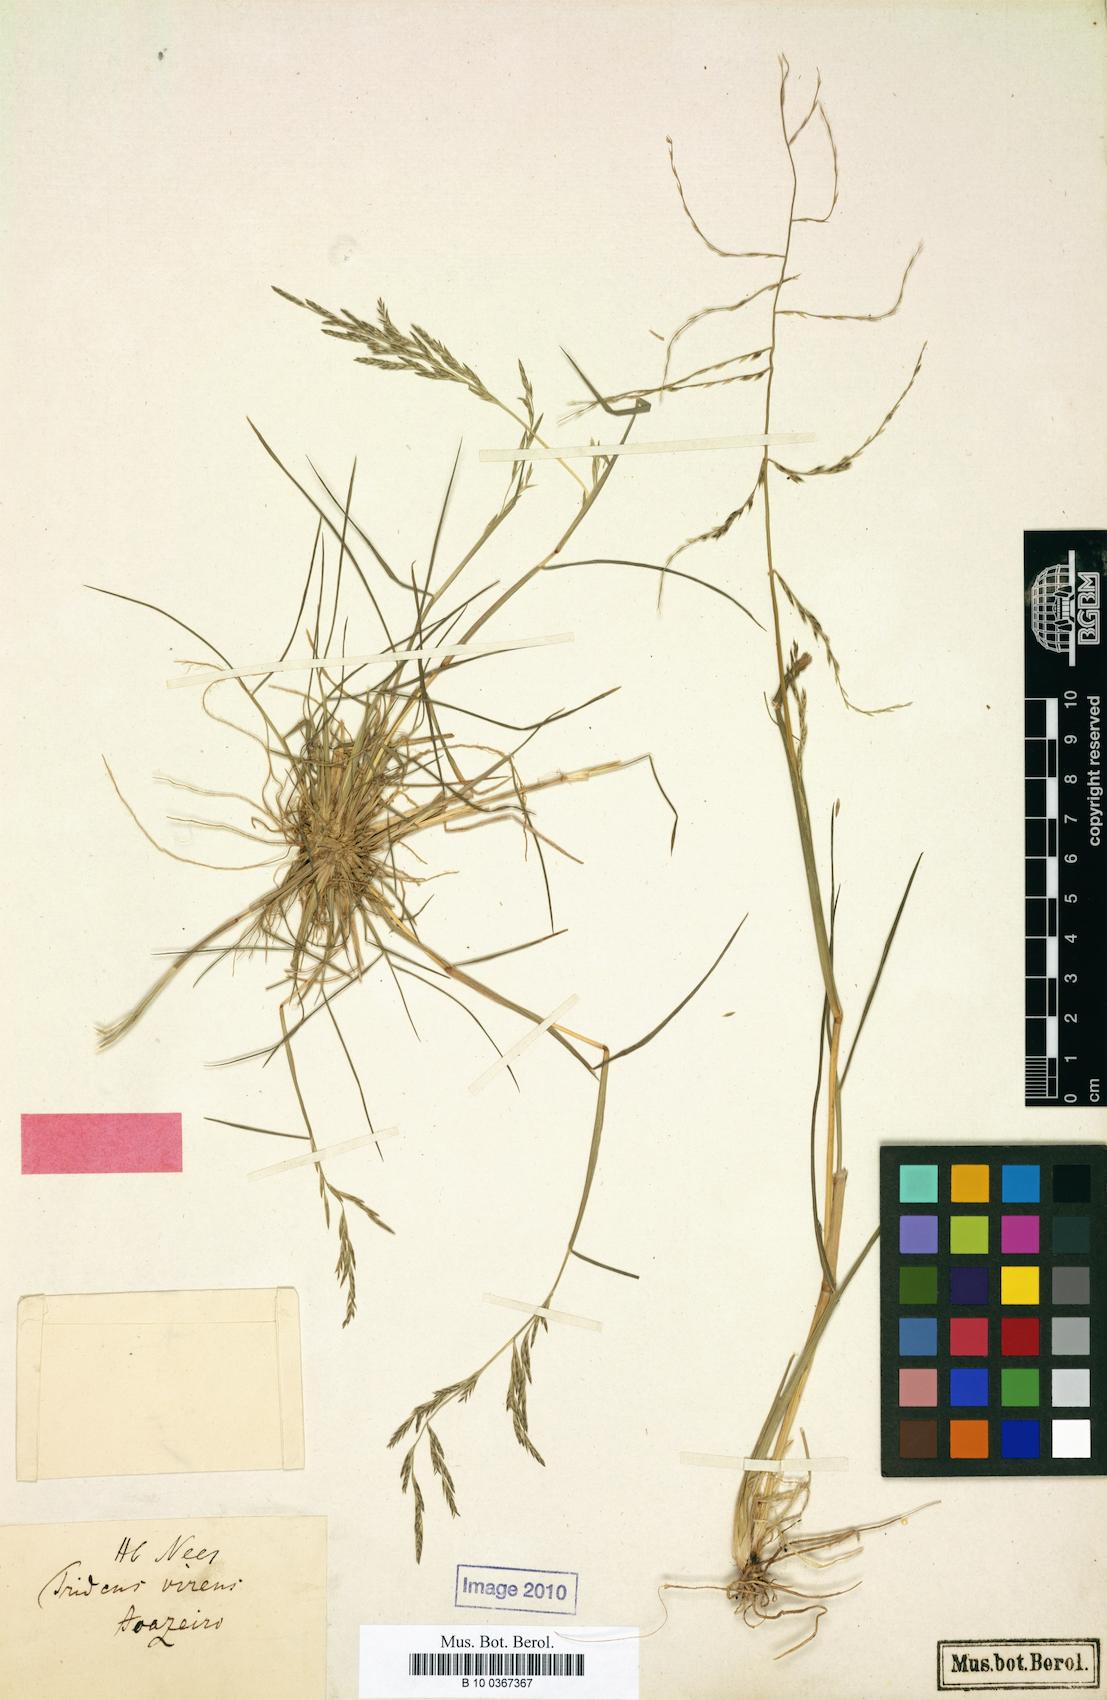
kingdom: Plantae
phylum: Tracheophyta
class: Liliopsida
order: Poales
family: Poaceae
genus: Diplachne
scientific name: Diplachne fusca
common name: Brown beetle grass
